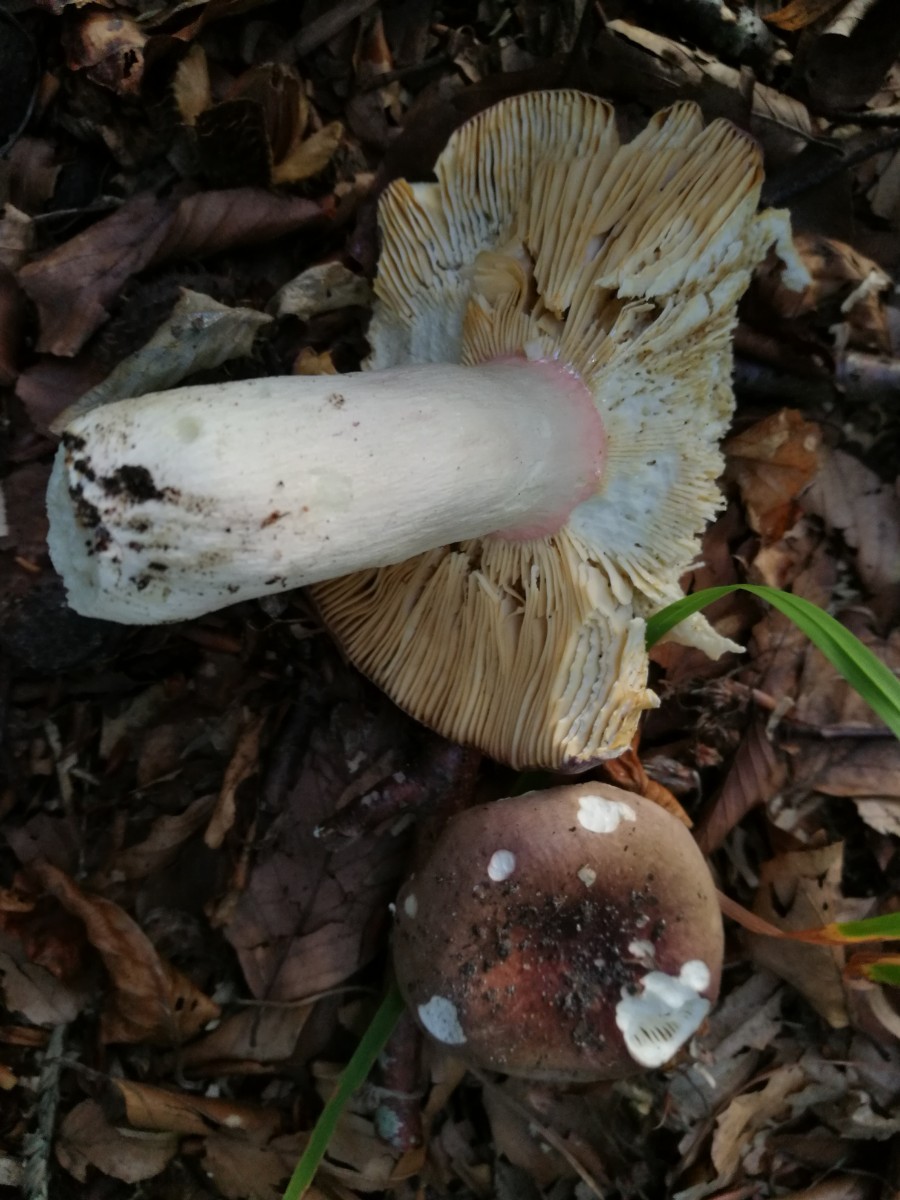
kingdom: Fungi
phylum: Basidiomycota
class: Agaricomycetes
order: Russulales
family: Russulaceae
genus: Russula
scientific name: Russula olivacea
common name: stor skørhat
